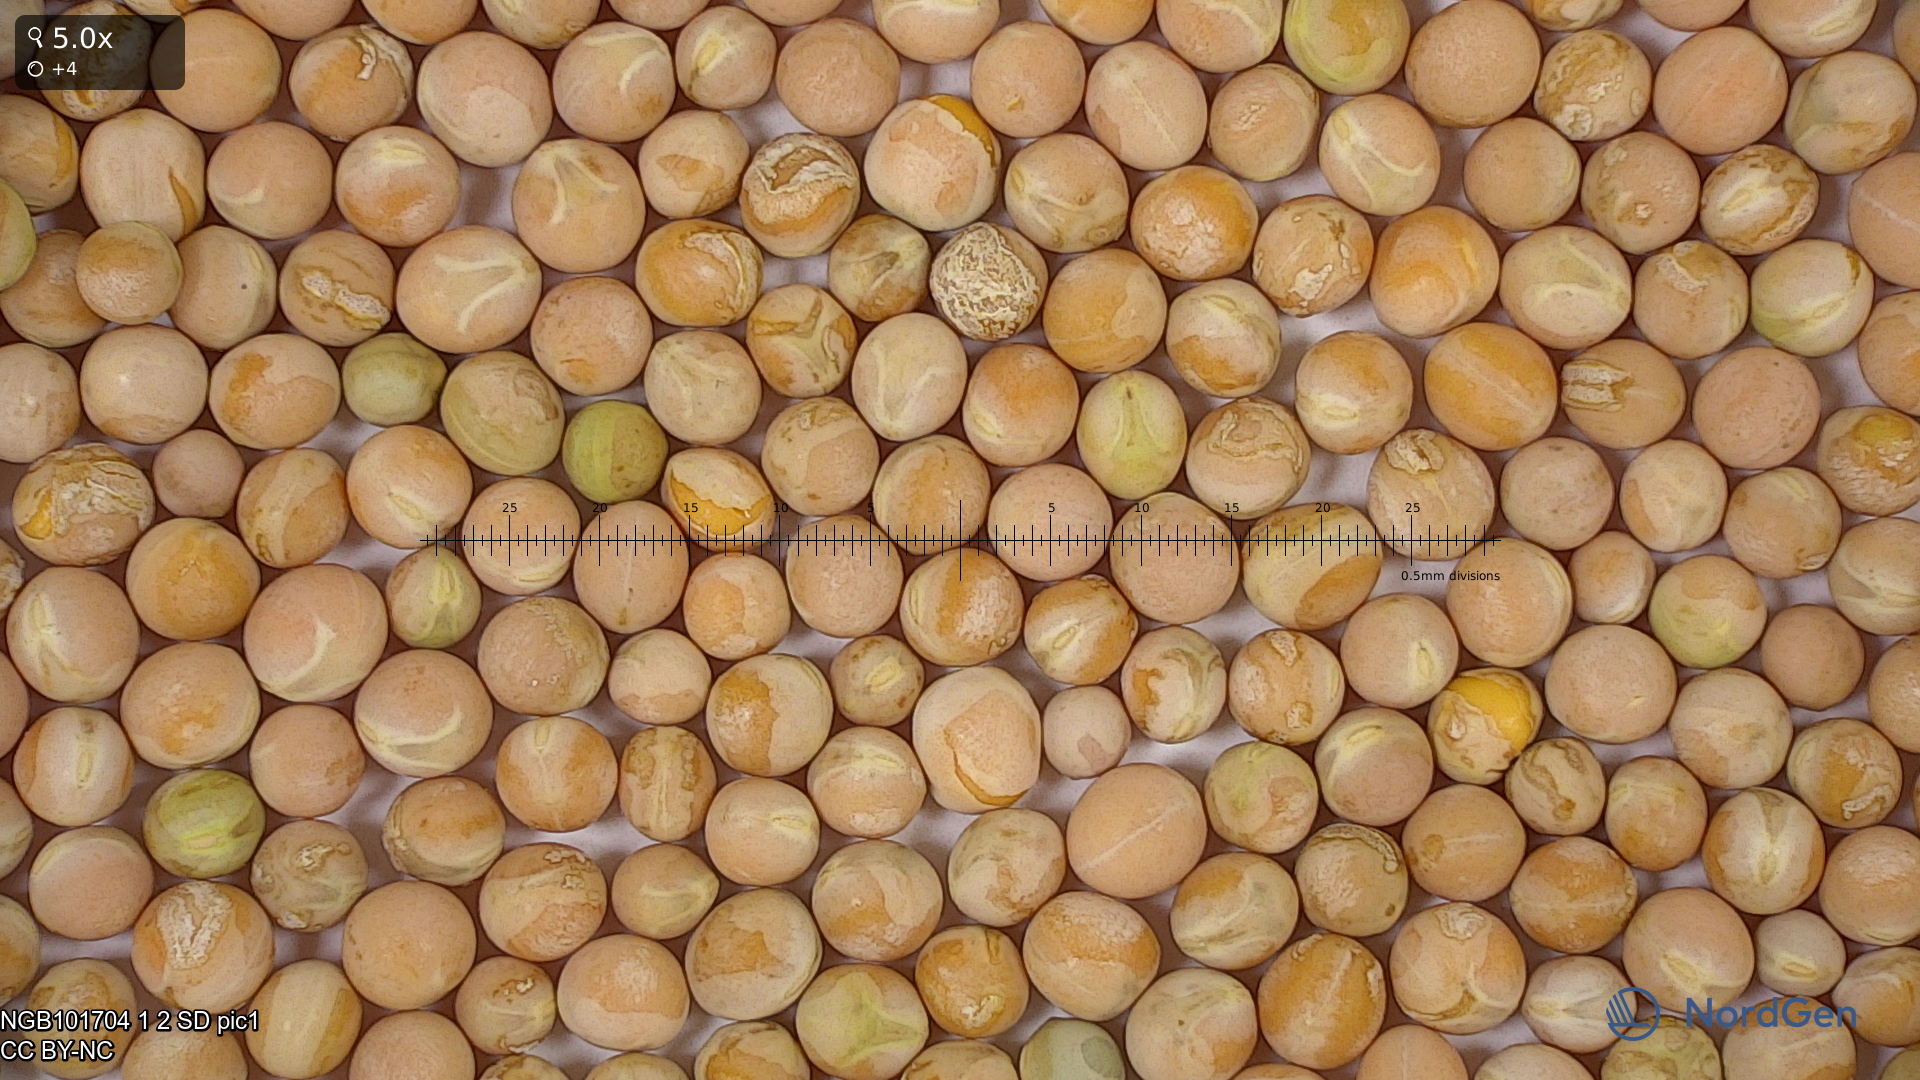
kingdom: Plantae
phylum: Tracheophyta
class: Magnoliopsida
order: Fabales
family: Fabaceae
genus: Lathyrus
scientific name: Lathyrus oleraceus
